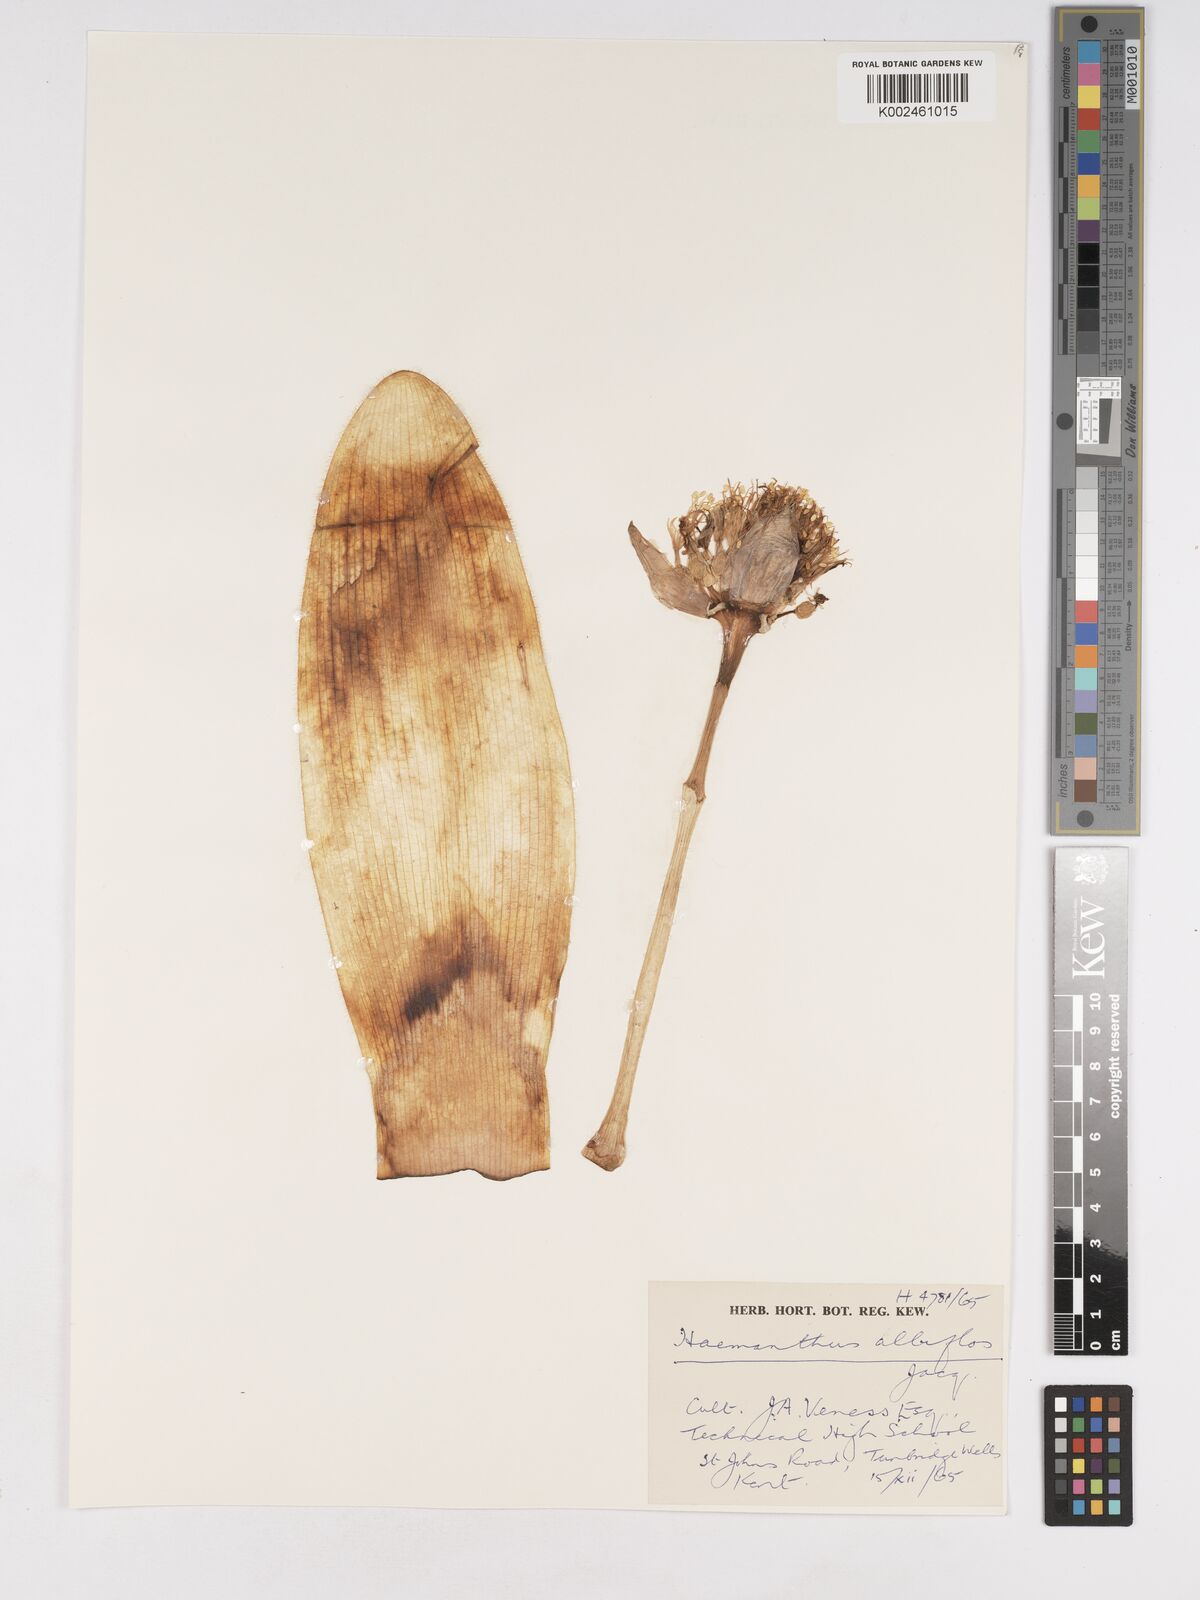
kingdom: Plantae
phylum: Tracheophyta
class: Liliopsida
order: Asparagales
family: Amaryllidaceae
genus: Haemanthus
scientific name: Haemanthus albiflos
